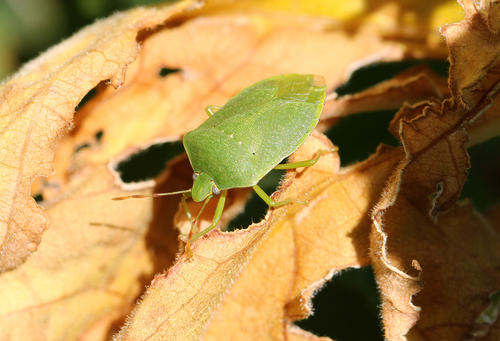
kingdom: Animalia
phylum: Arthropoda
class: Insecta
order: Hemiptera
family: Pentatomidae
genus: Nezara
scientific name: Nezara viridula
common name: Southern green stink bug
